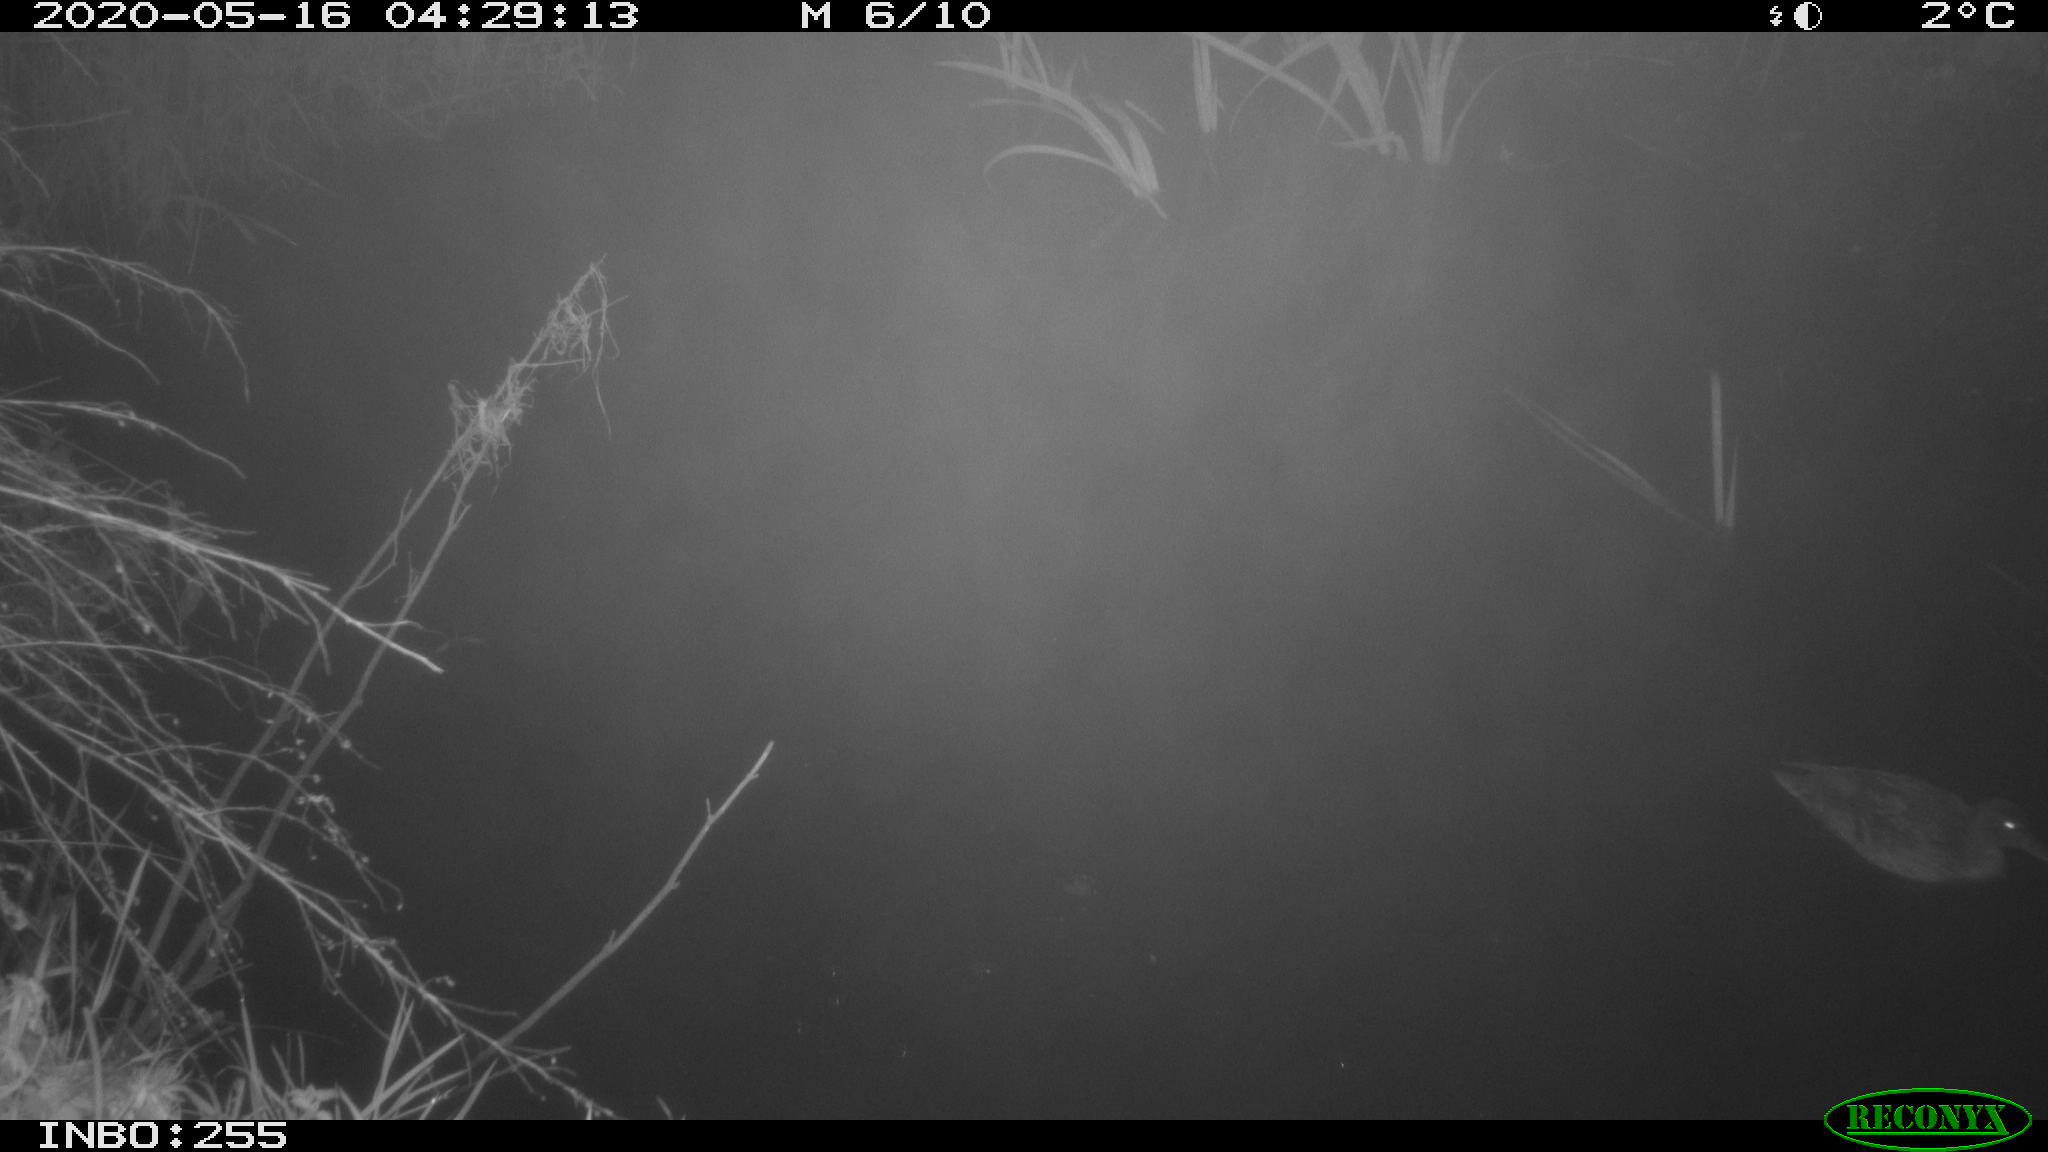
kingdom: Animalia
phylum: Chordata
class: Aves
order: Anseriformes
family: Anatidae
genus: Anas
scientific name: Anas platyrhynchos
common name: Mallard
